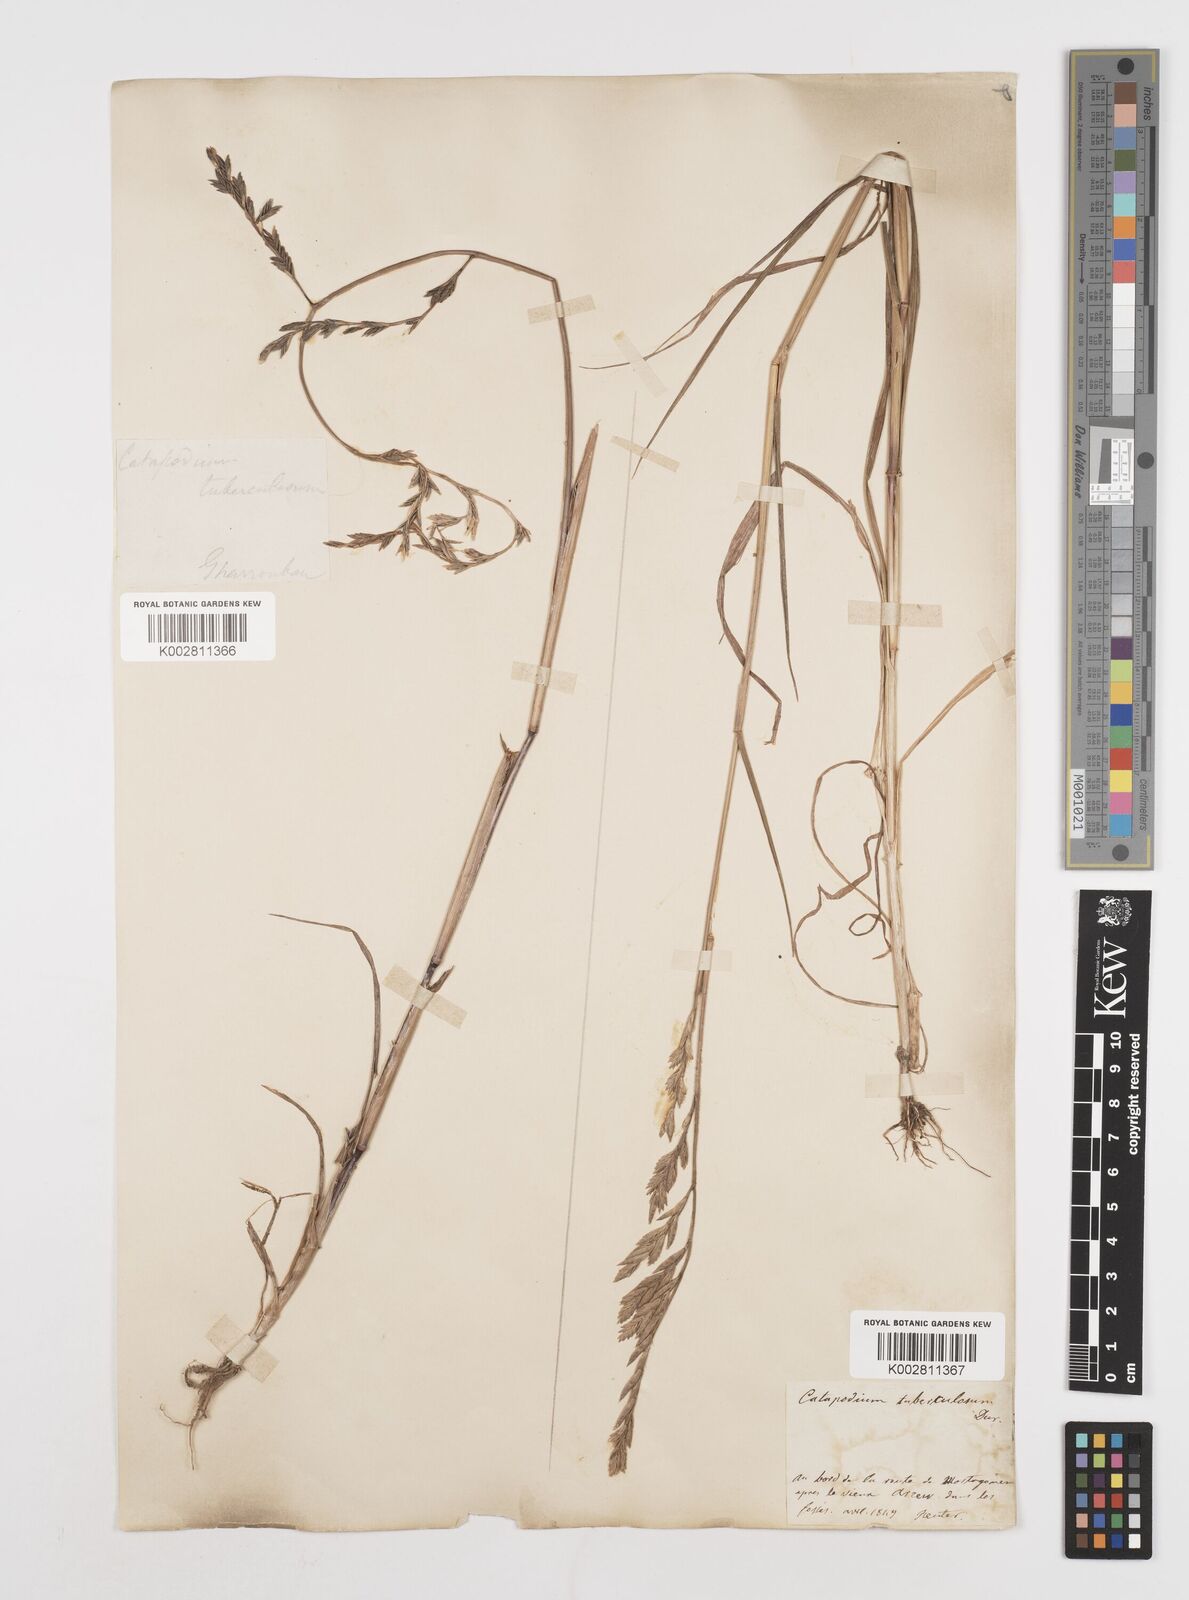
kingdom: Plantae
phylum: Tracheophyta
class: Liliopsida
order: Poales
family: Poaceae
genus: Castellia
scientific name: Castellia tuberculosa
